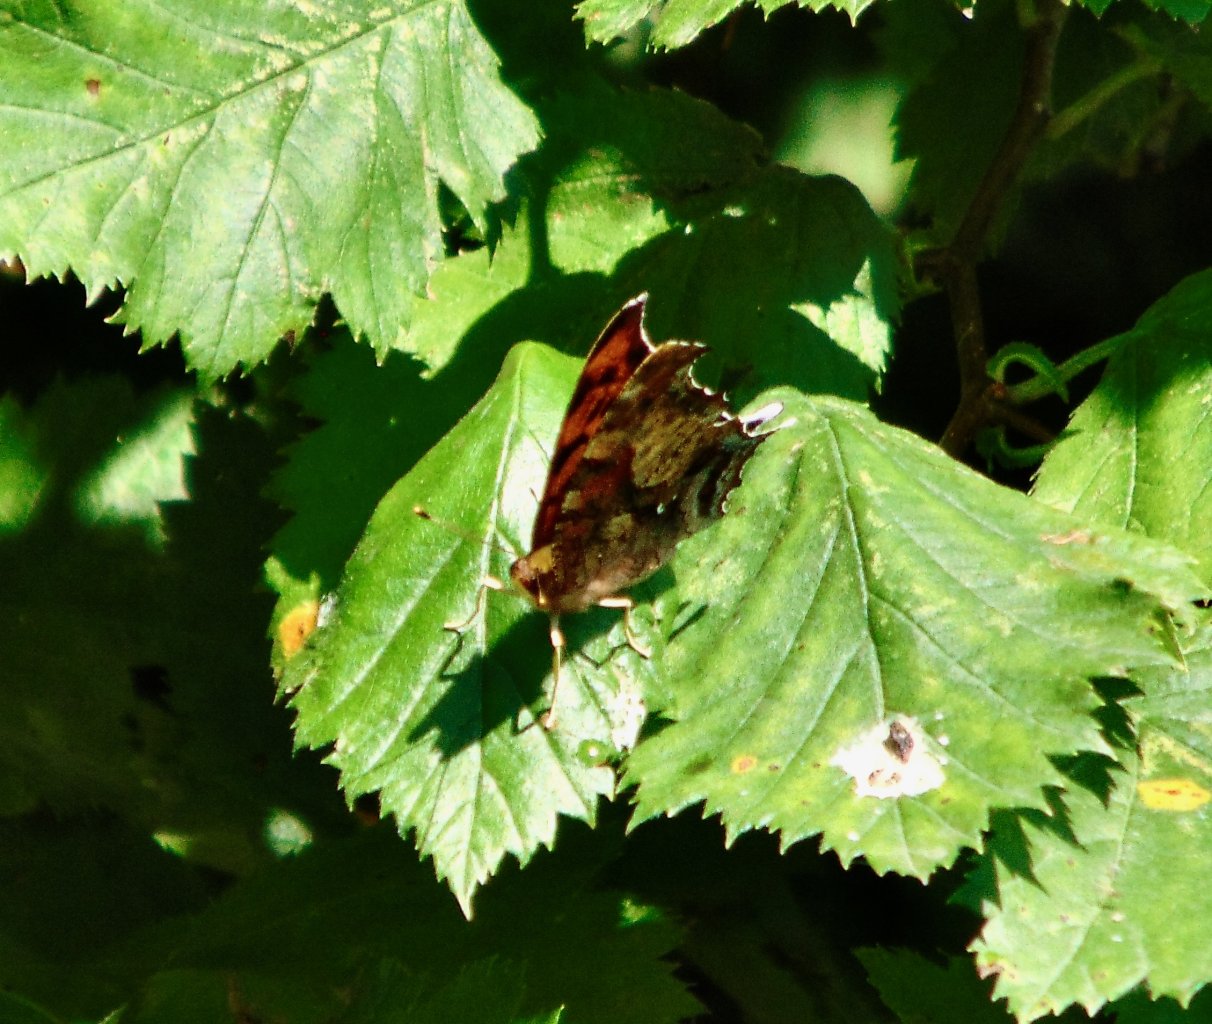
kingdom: Animalia
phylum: Arthropoda
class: Insecta
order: Lepidoptera
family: Nymphalidae
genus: Polygonia
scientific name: Polygonia interrogationis
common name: Question Mark
